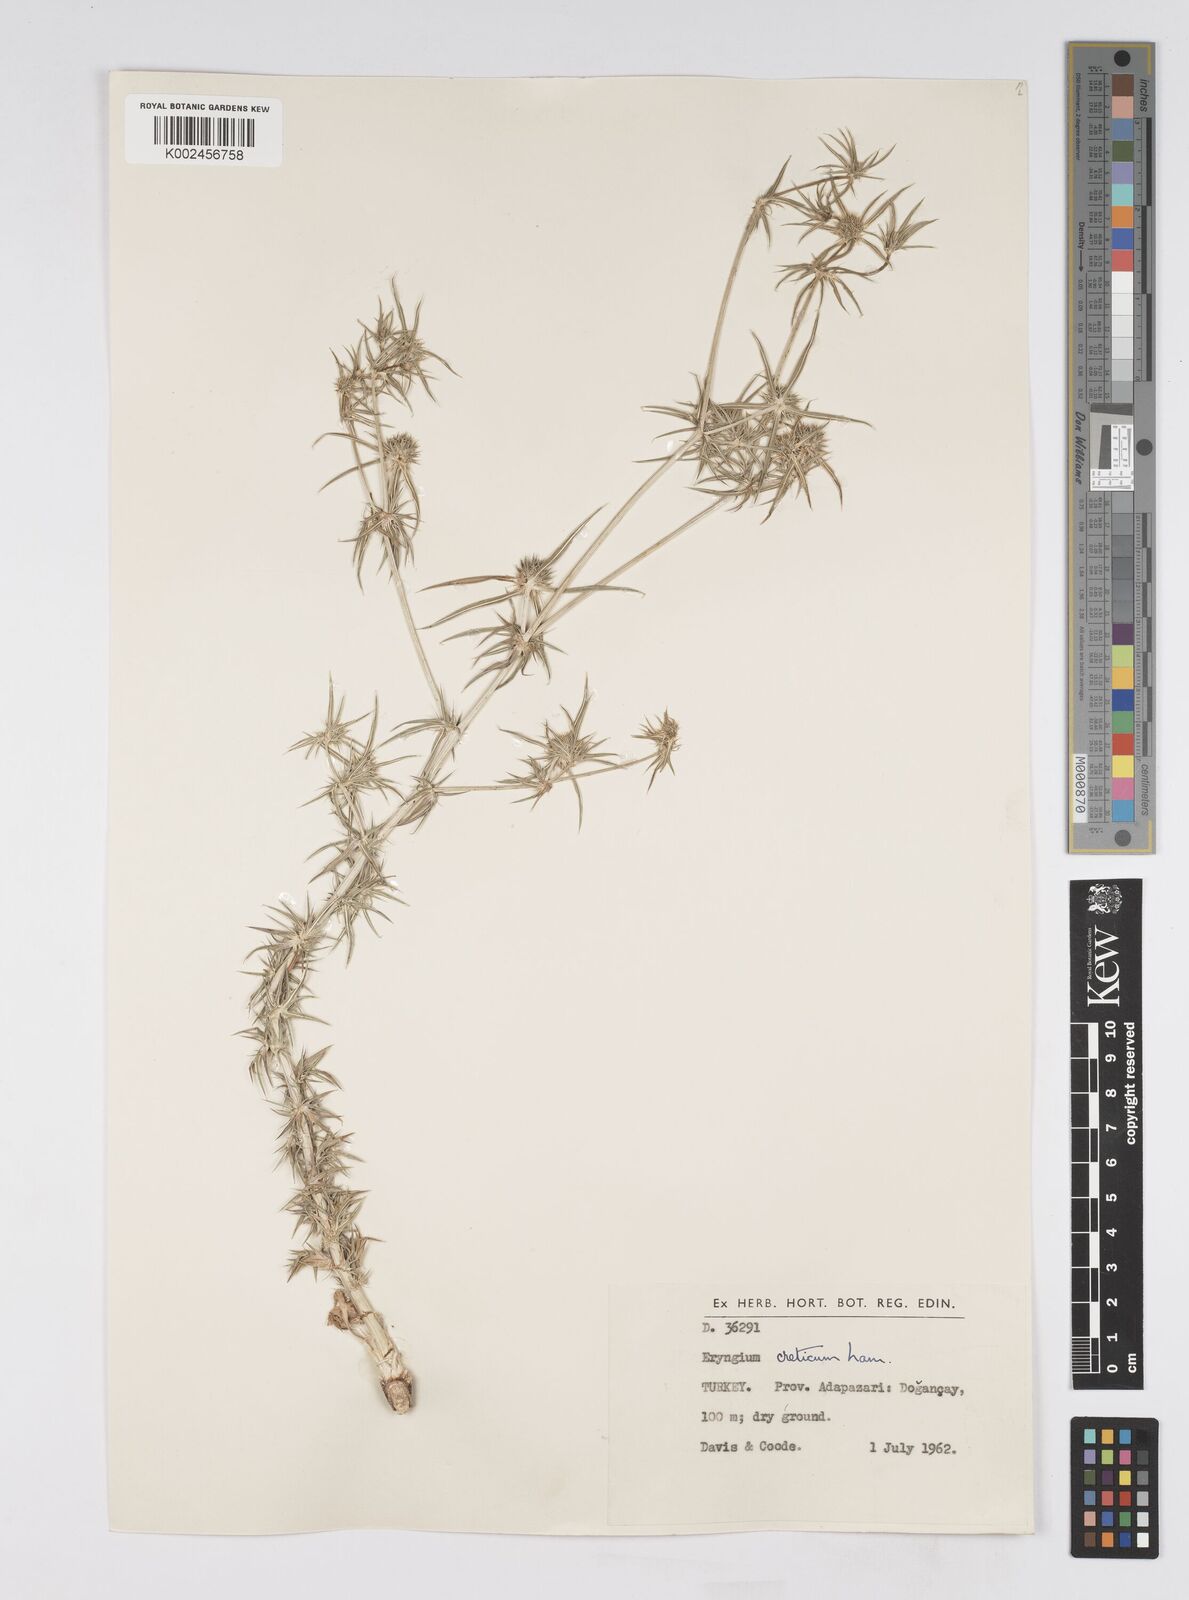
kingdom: Plantae
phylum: Tracheophyta
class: Magnoliopsida
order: Apiales
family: Apiaceae
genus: Eryngium
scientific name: Eryngium creticum
